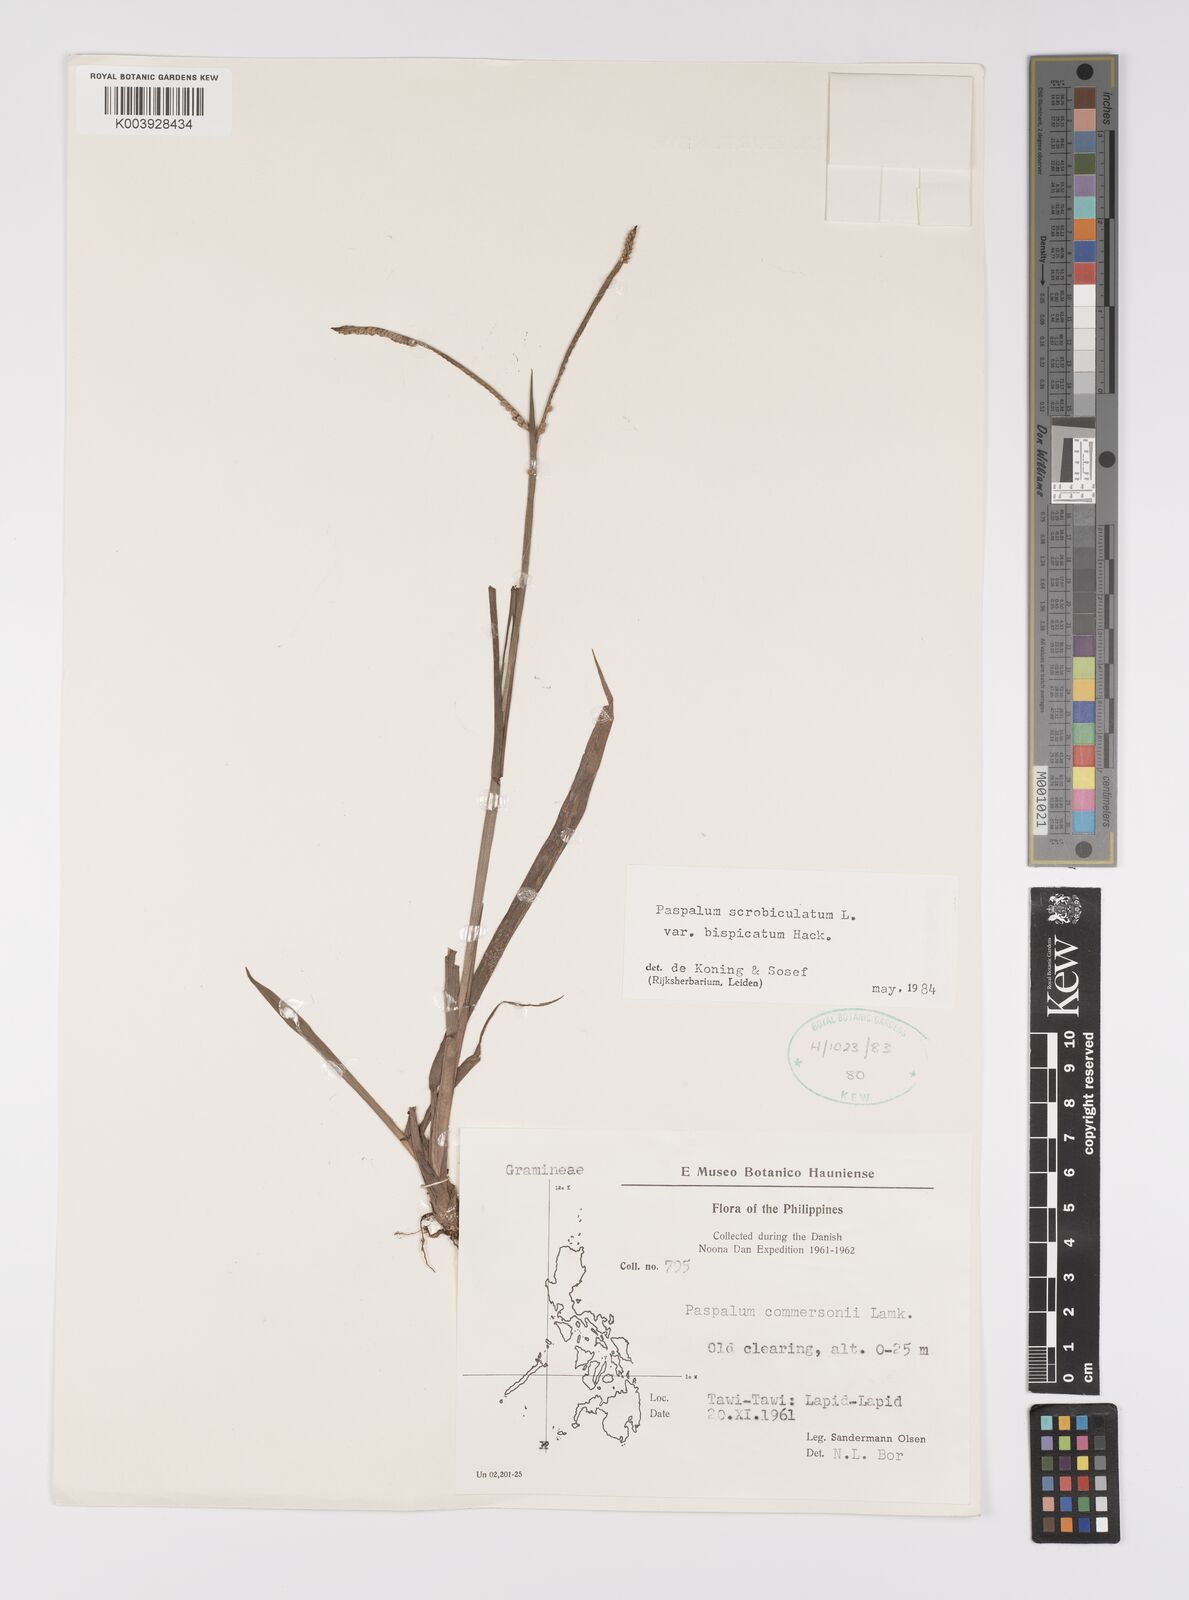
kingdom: Plantae
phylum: Tracheophyta
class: Liliopsida
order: Poales
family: Poaceae
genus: Paspalum
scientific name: Paspalum scrobiculatum
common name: Kodo millet
